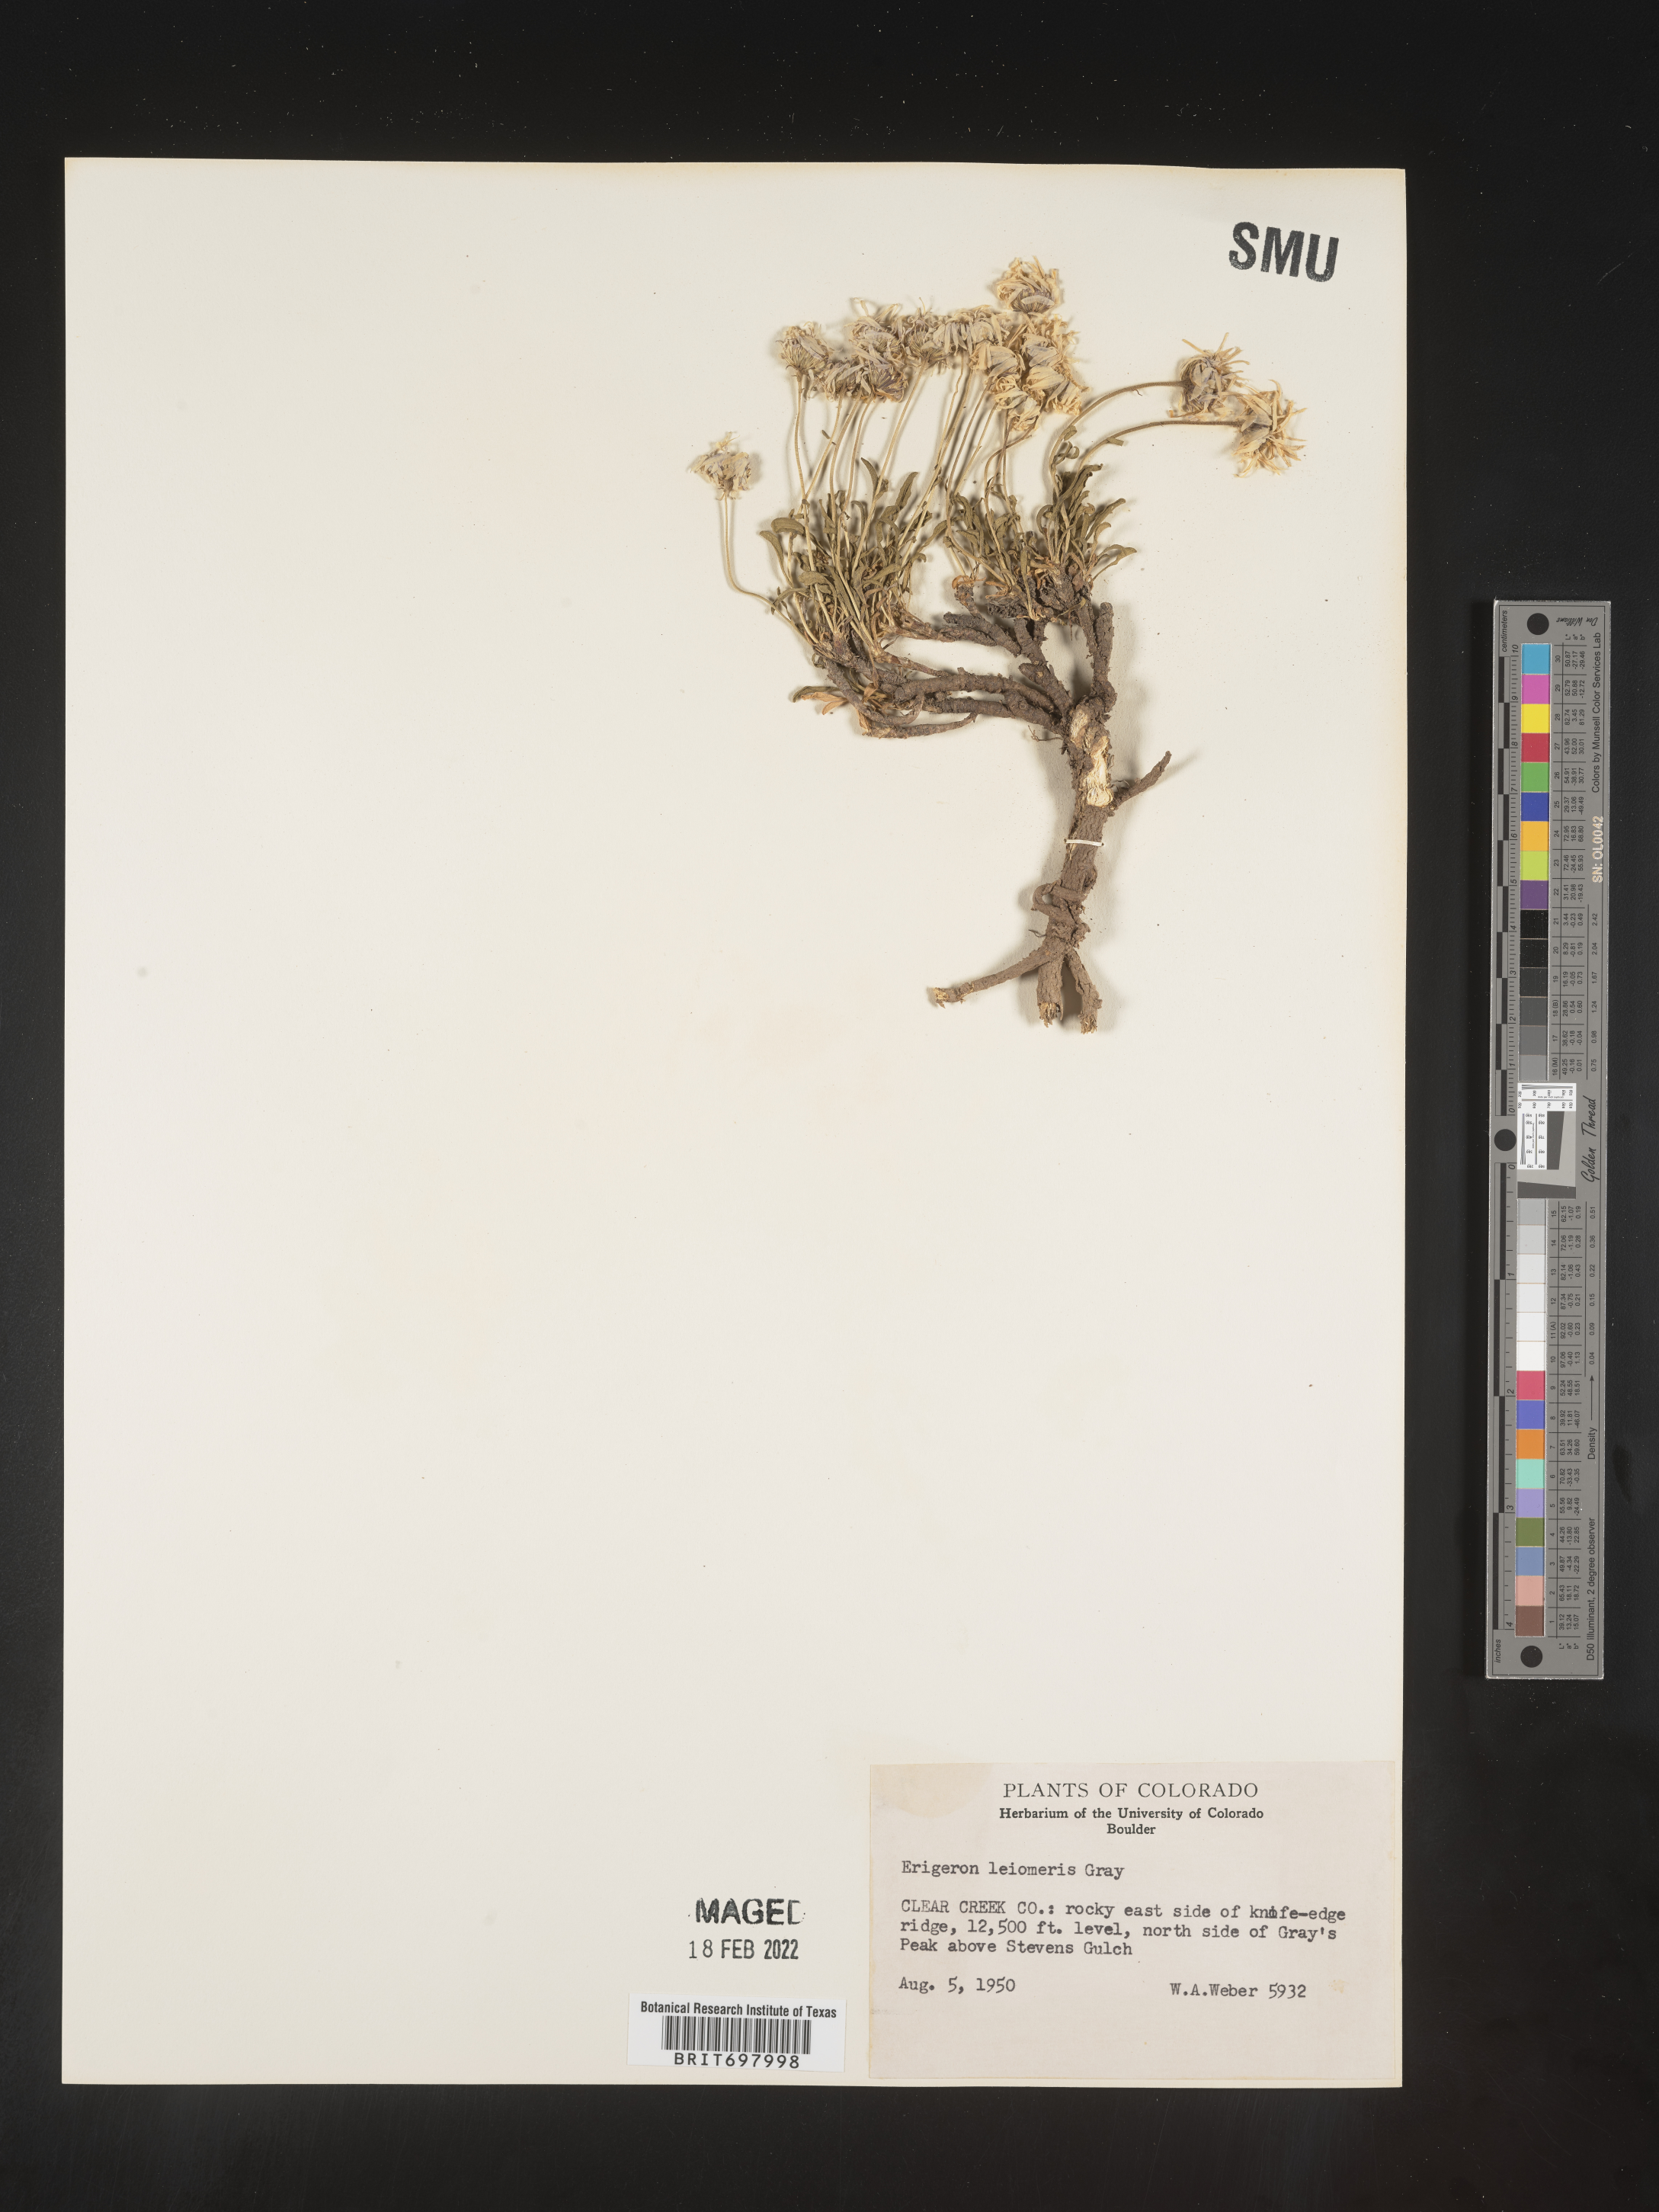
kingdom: Plantae
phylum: Tracheophyta
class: Magnoliopsida
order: Asterales
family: Asteraceae
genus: Erigeron
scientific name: Erigeron leiomerus
